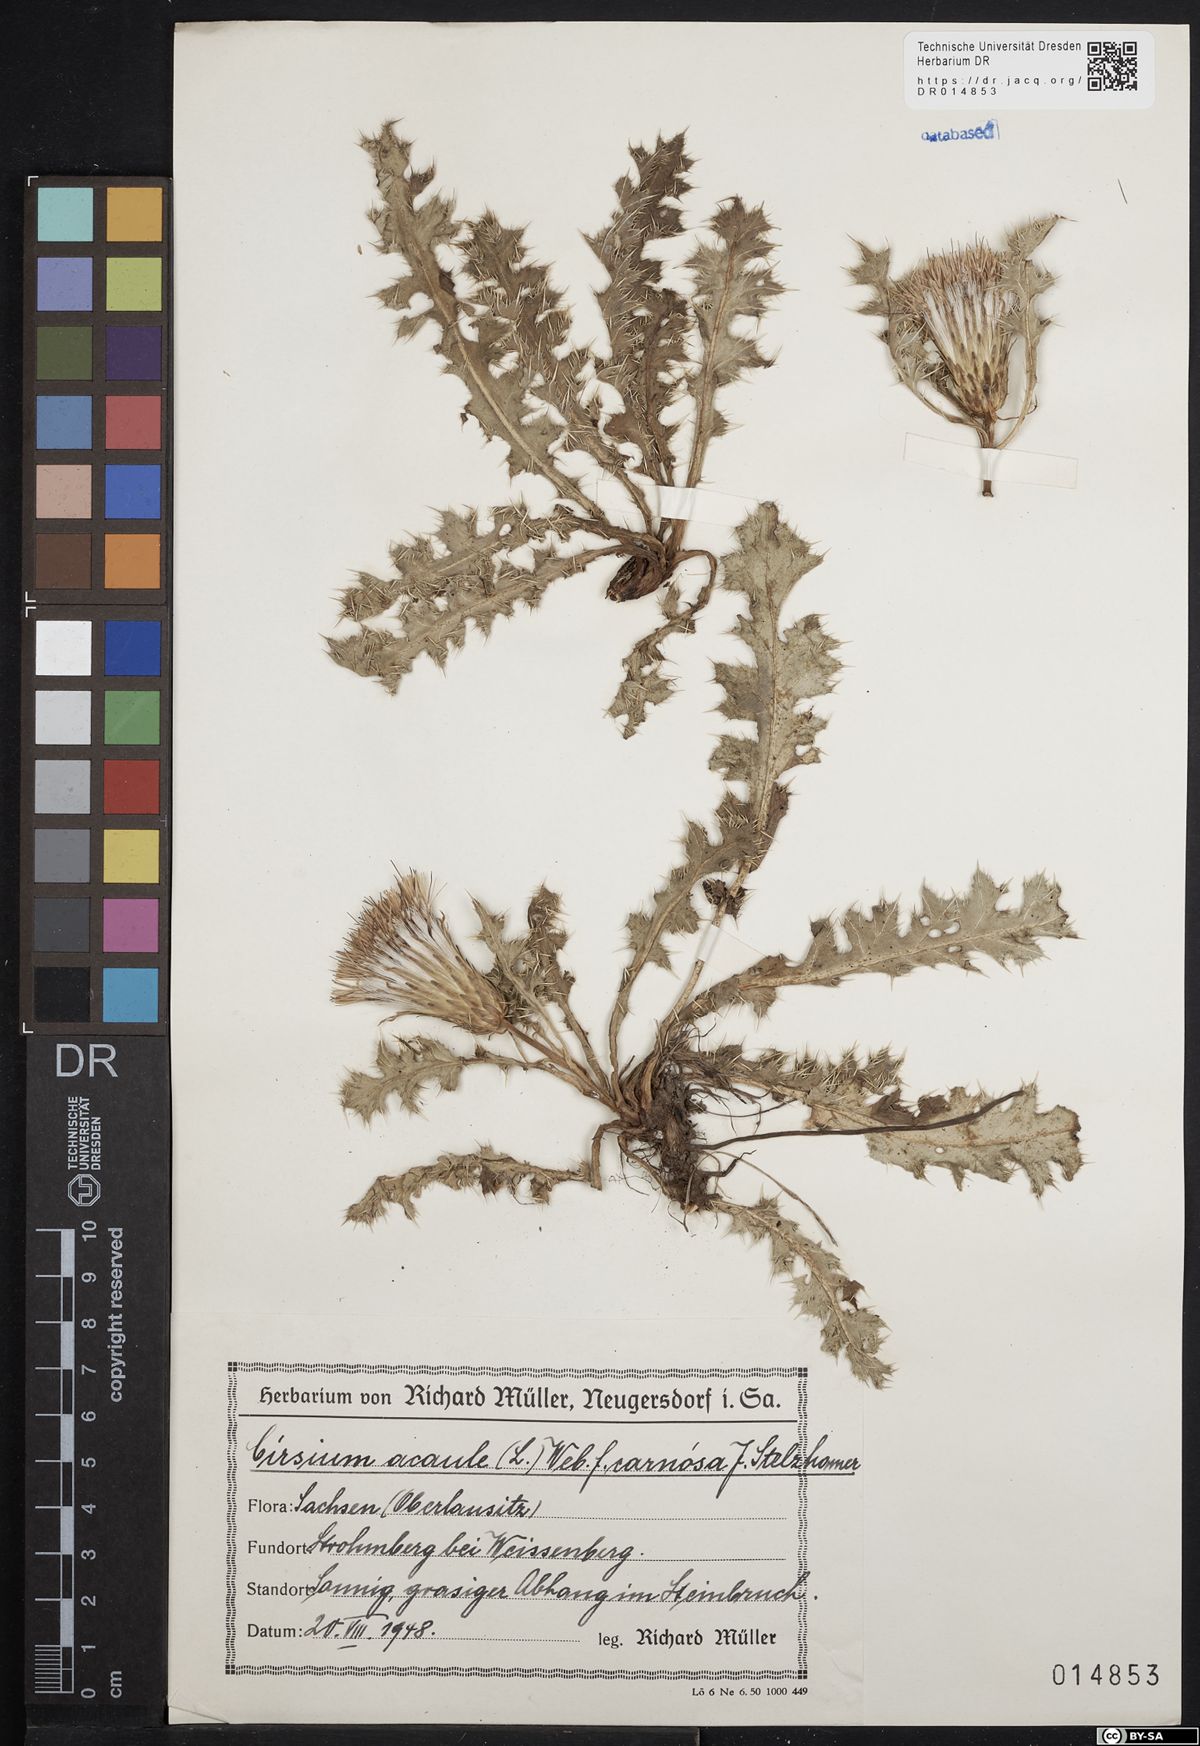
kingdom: Plantae
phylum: Tracheophyta
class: Magnoliopsida
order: Asterales
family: Asteraceae
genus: Cirsium
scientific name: Cirsium acaule
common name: Dwarf thistle
